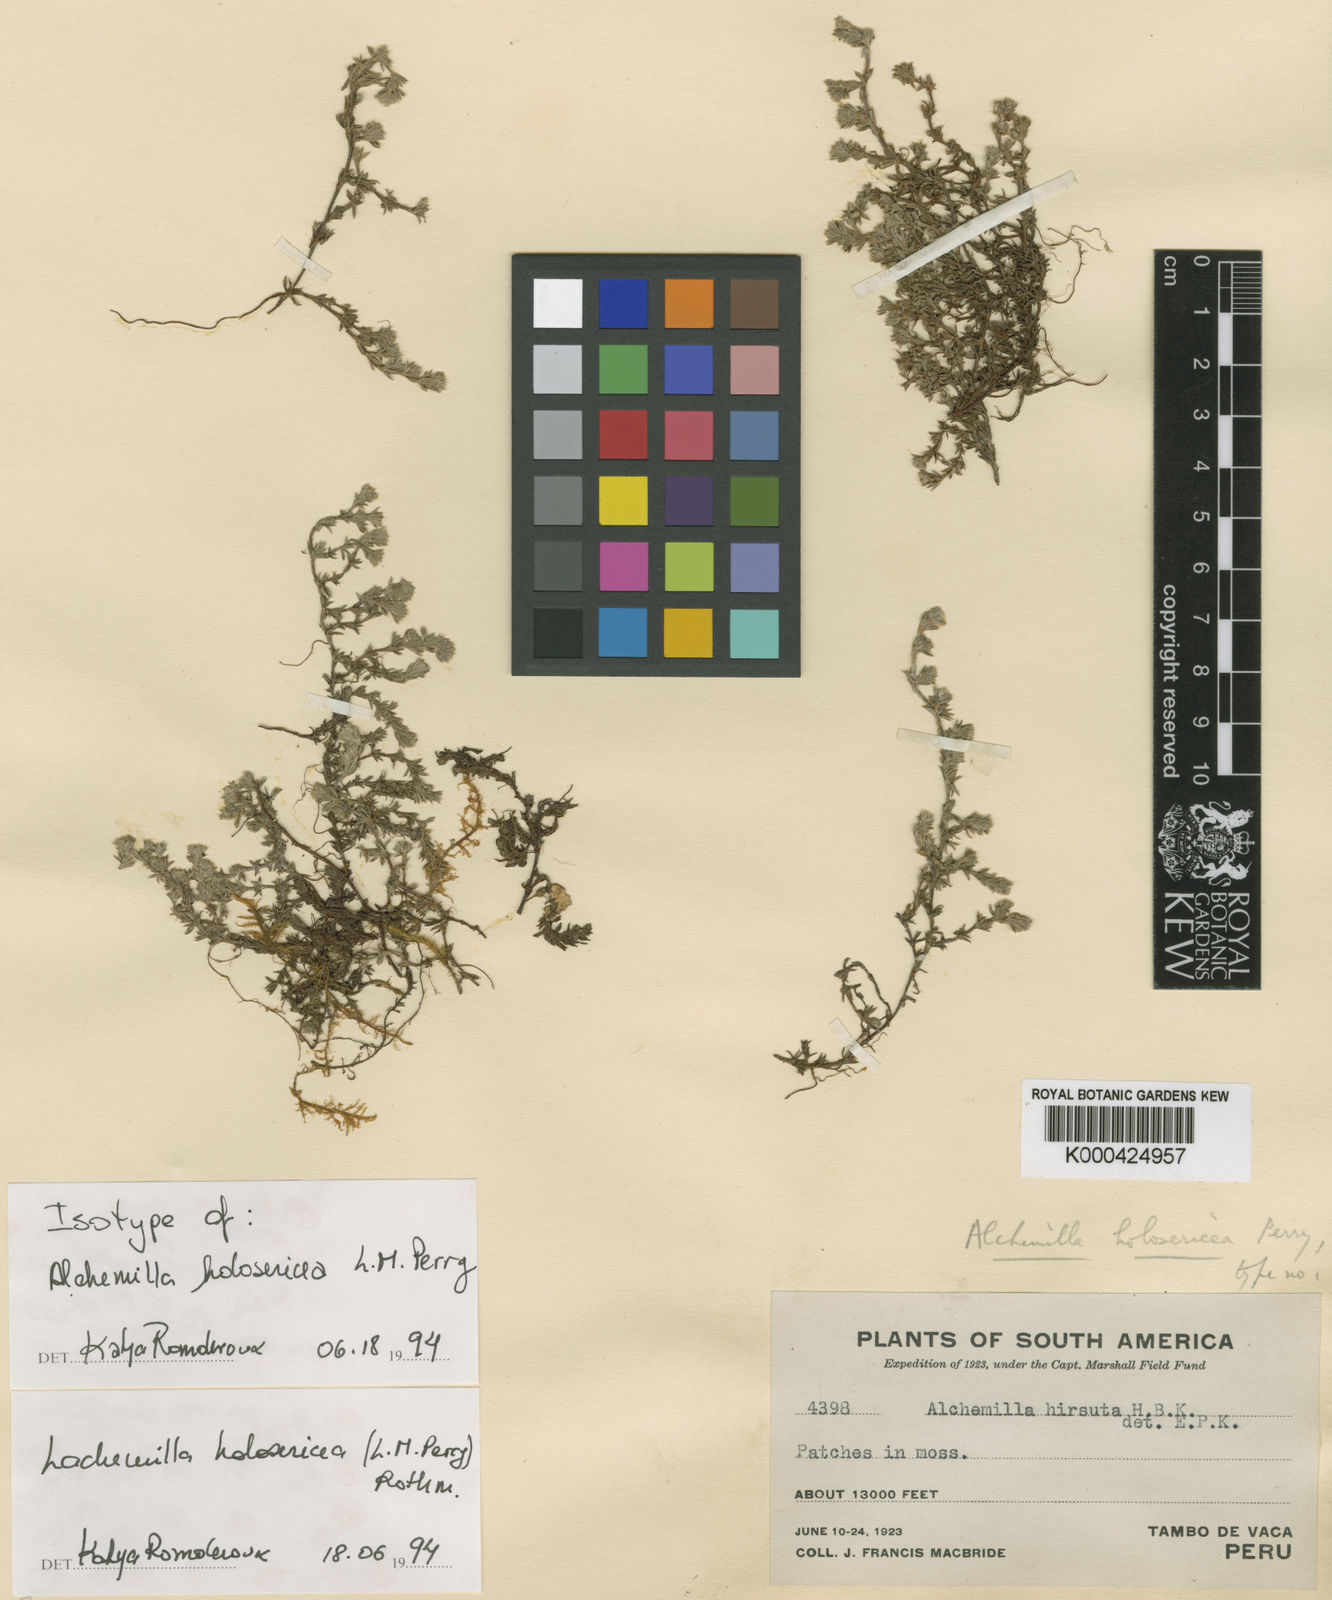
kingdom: Plantae
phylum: Tracheophyta
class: Magnoliopsida
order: Rosales
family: Rosaceae
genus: Lachemilla
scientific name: Lachemilla holosericea
